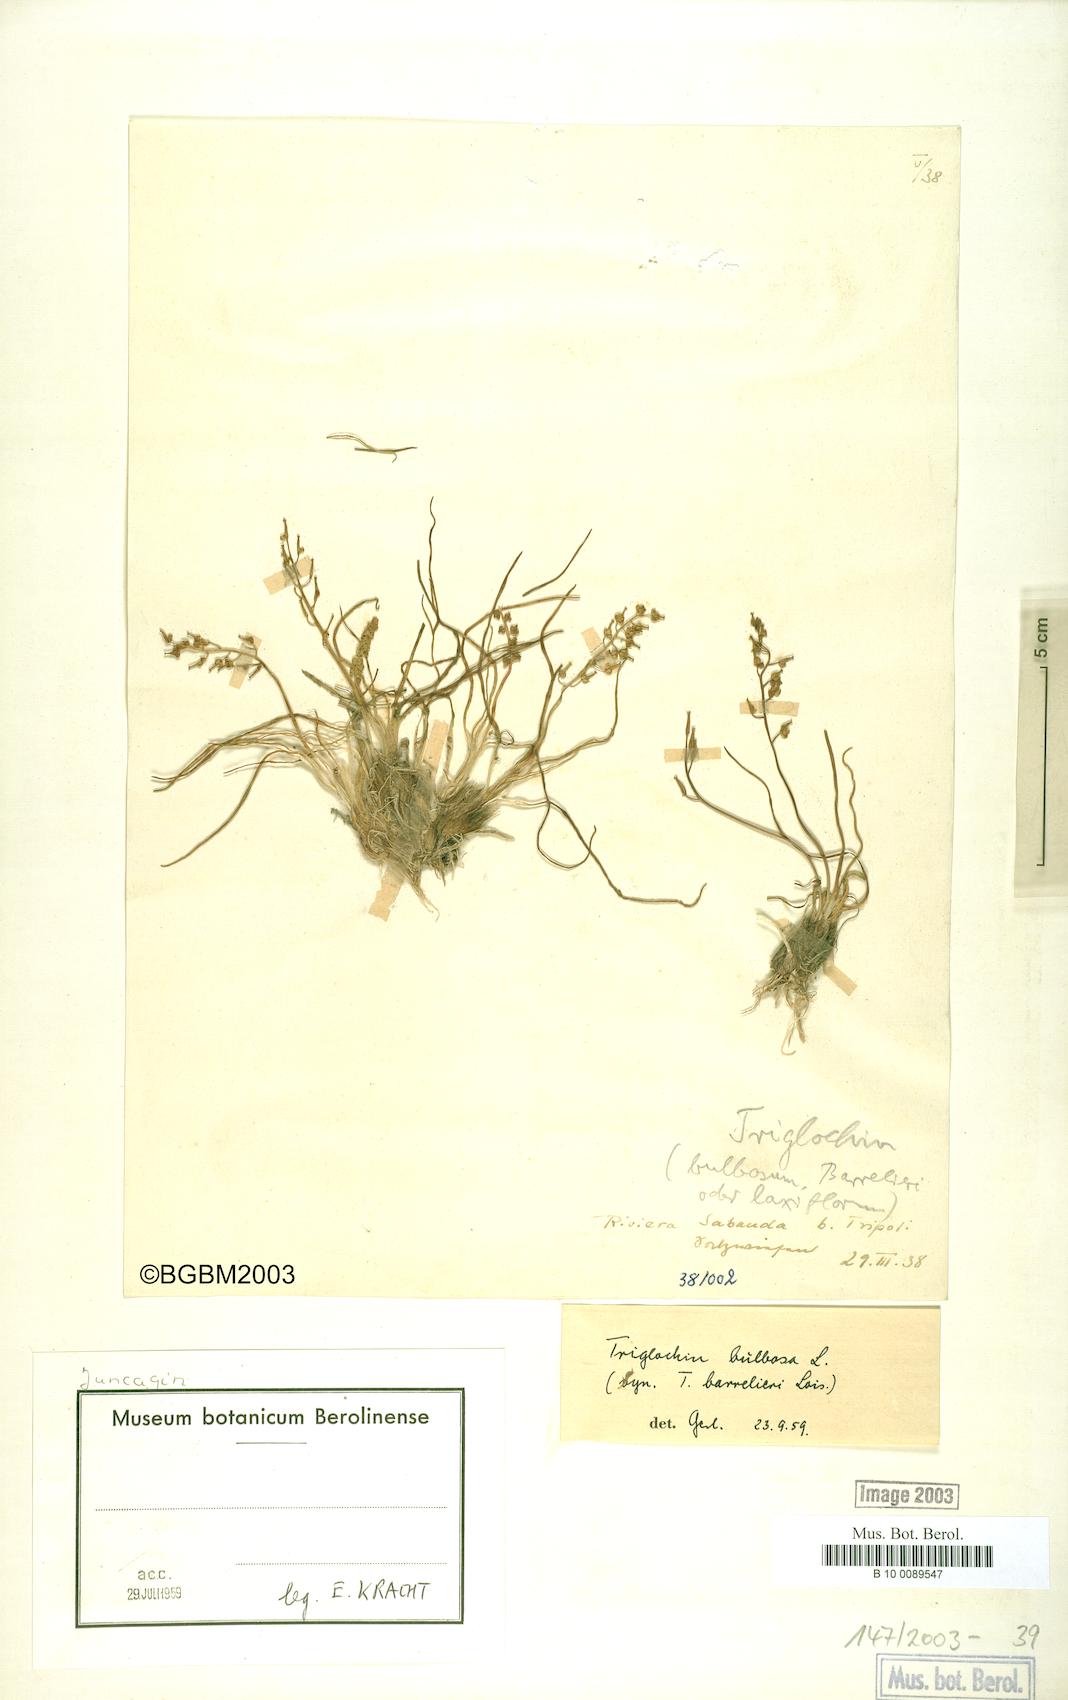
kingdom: Plantae
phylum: Tracheophyta
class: Liliopsida
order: Alismatales
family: Juncaginaceae
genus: Triglochin
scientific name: Triglochin bulbosa
